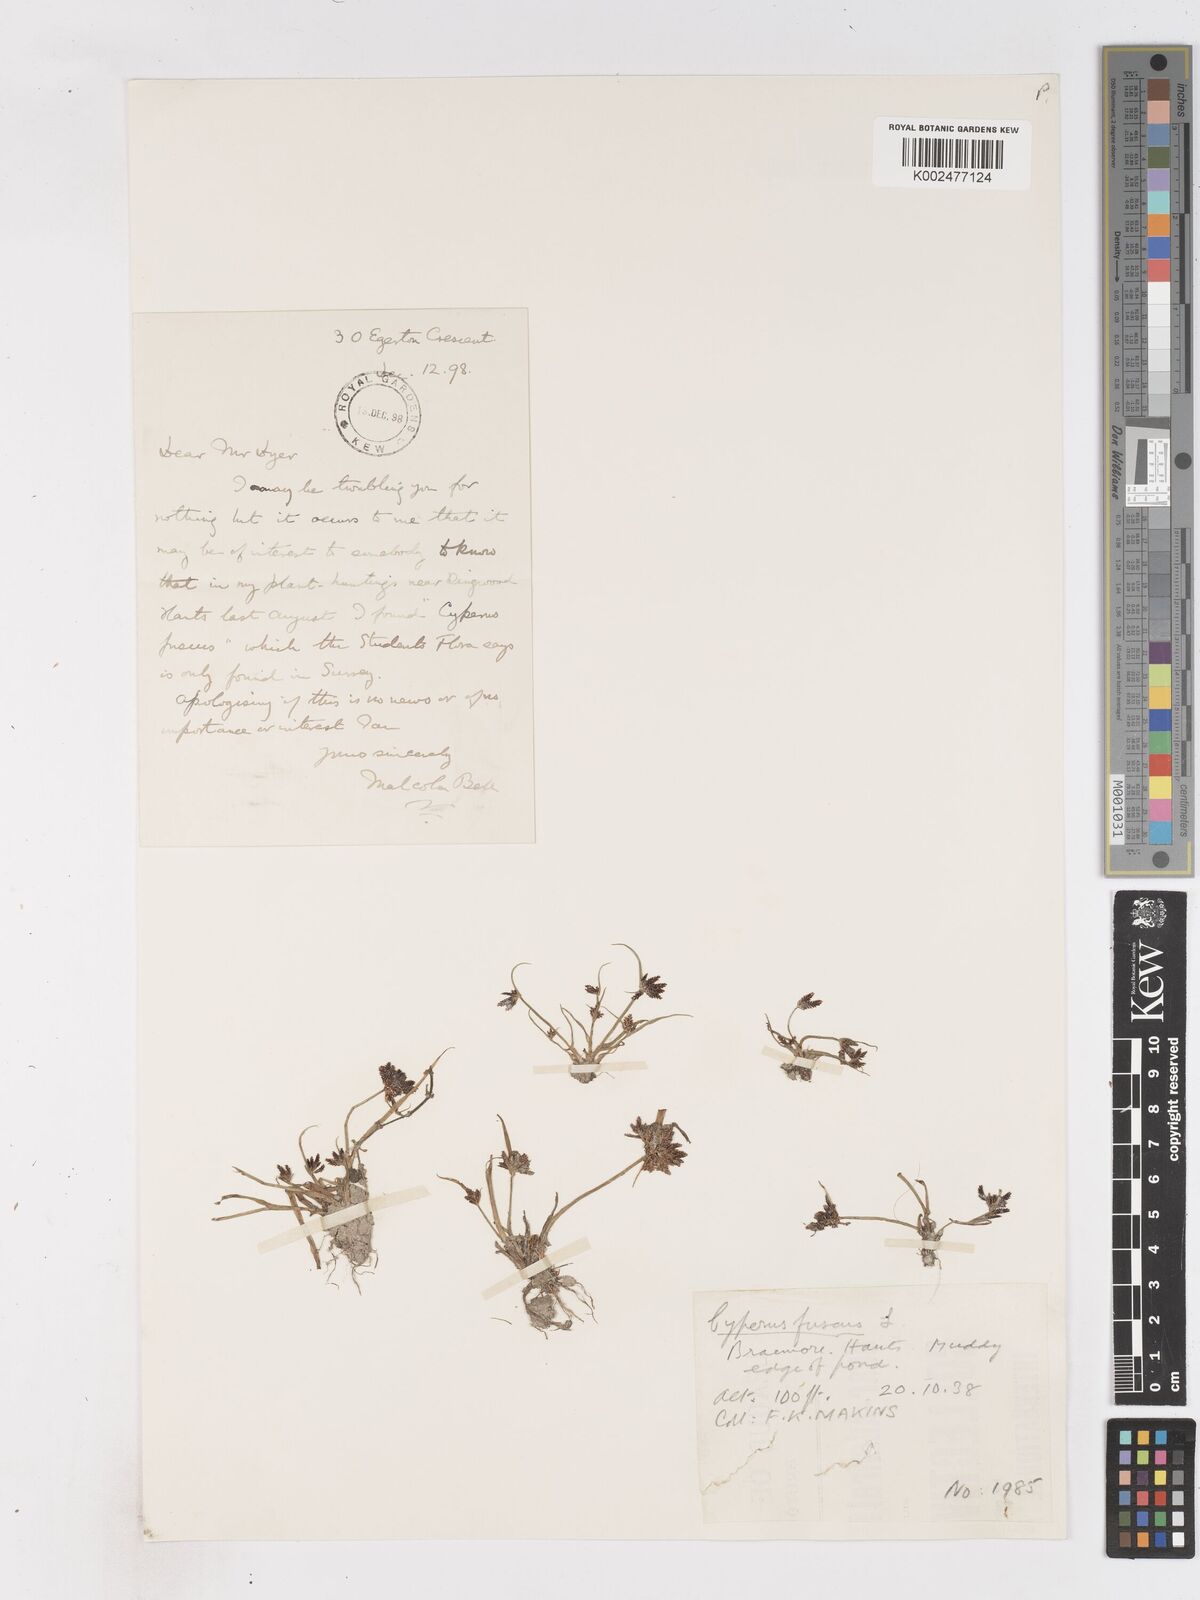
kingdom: Plantae
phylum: Tracheophyta
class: Liliopsida
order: Poales
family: Cyperaceae
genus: Cyperus
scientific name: Cyperus fuscus
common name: Brown galingale
